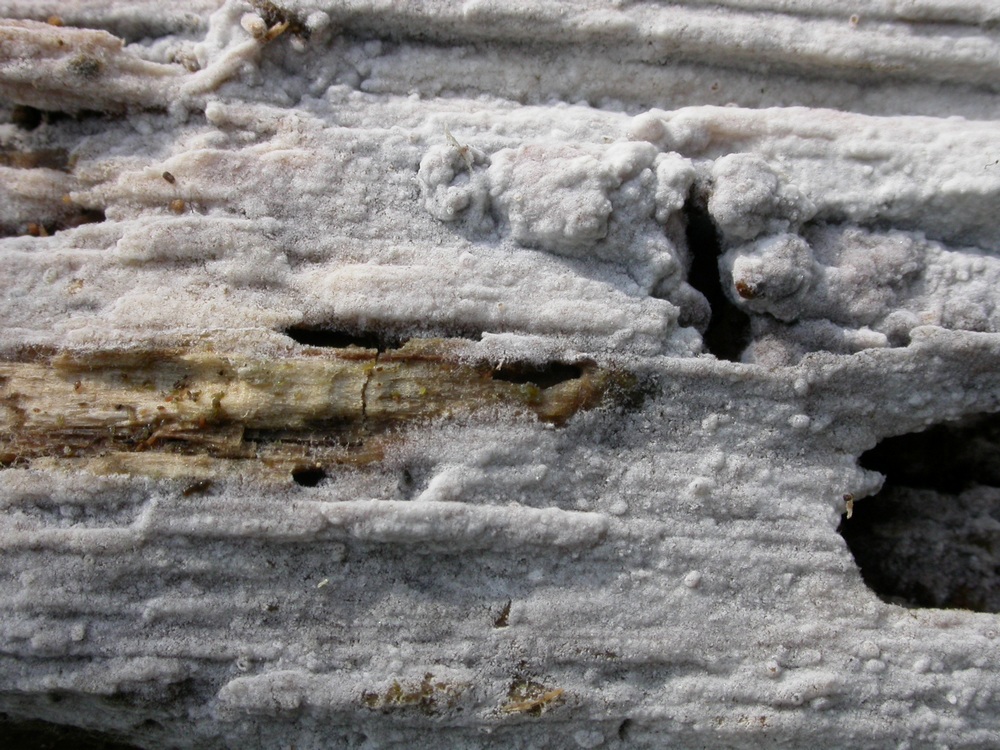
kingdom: Fungi
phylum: Basidiomycota
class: Agaricomycetes
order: Cantharellales
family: Botryobasidiaceae
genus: Botryobasidium
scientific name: Botryobasidium subcoronatum
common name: almindelig spindhinde
